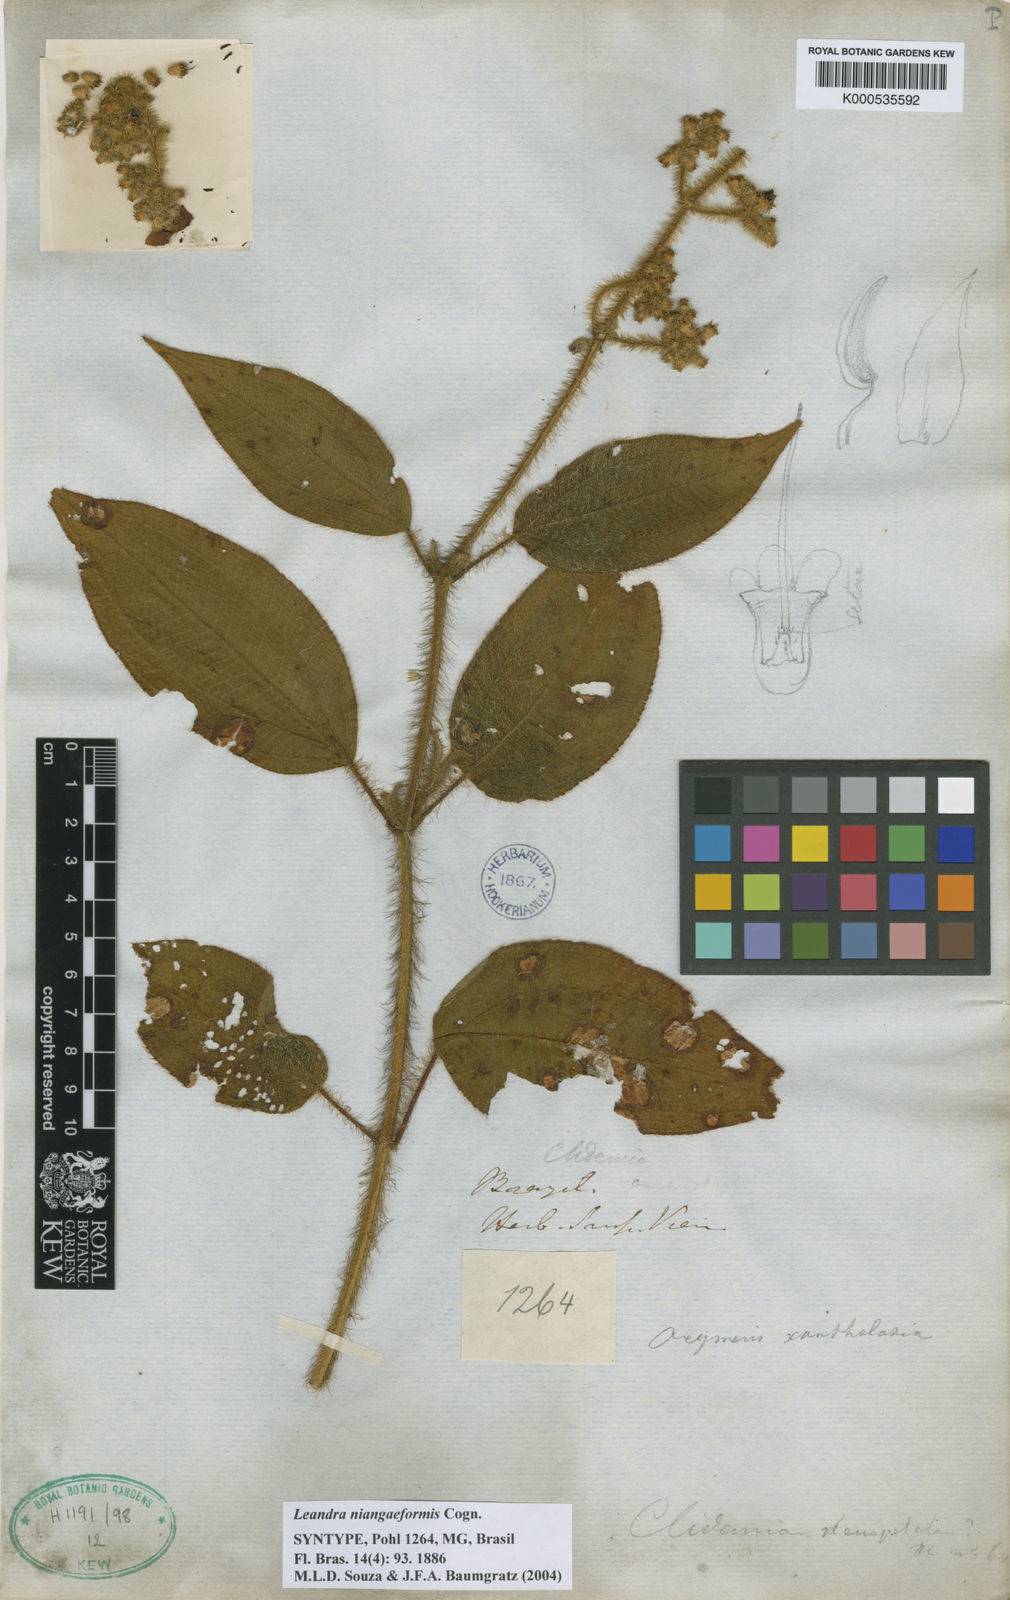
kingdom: Plantae
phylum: Tracheophyta
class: Magnoliopsida
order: Myrtales
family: Melastomataceae
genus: Miconia
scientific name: Miconia niangaeformis
